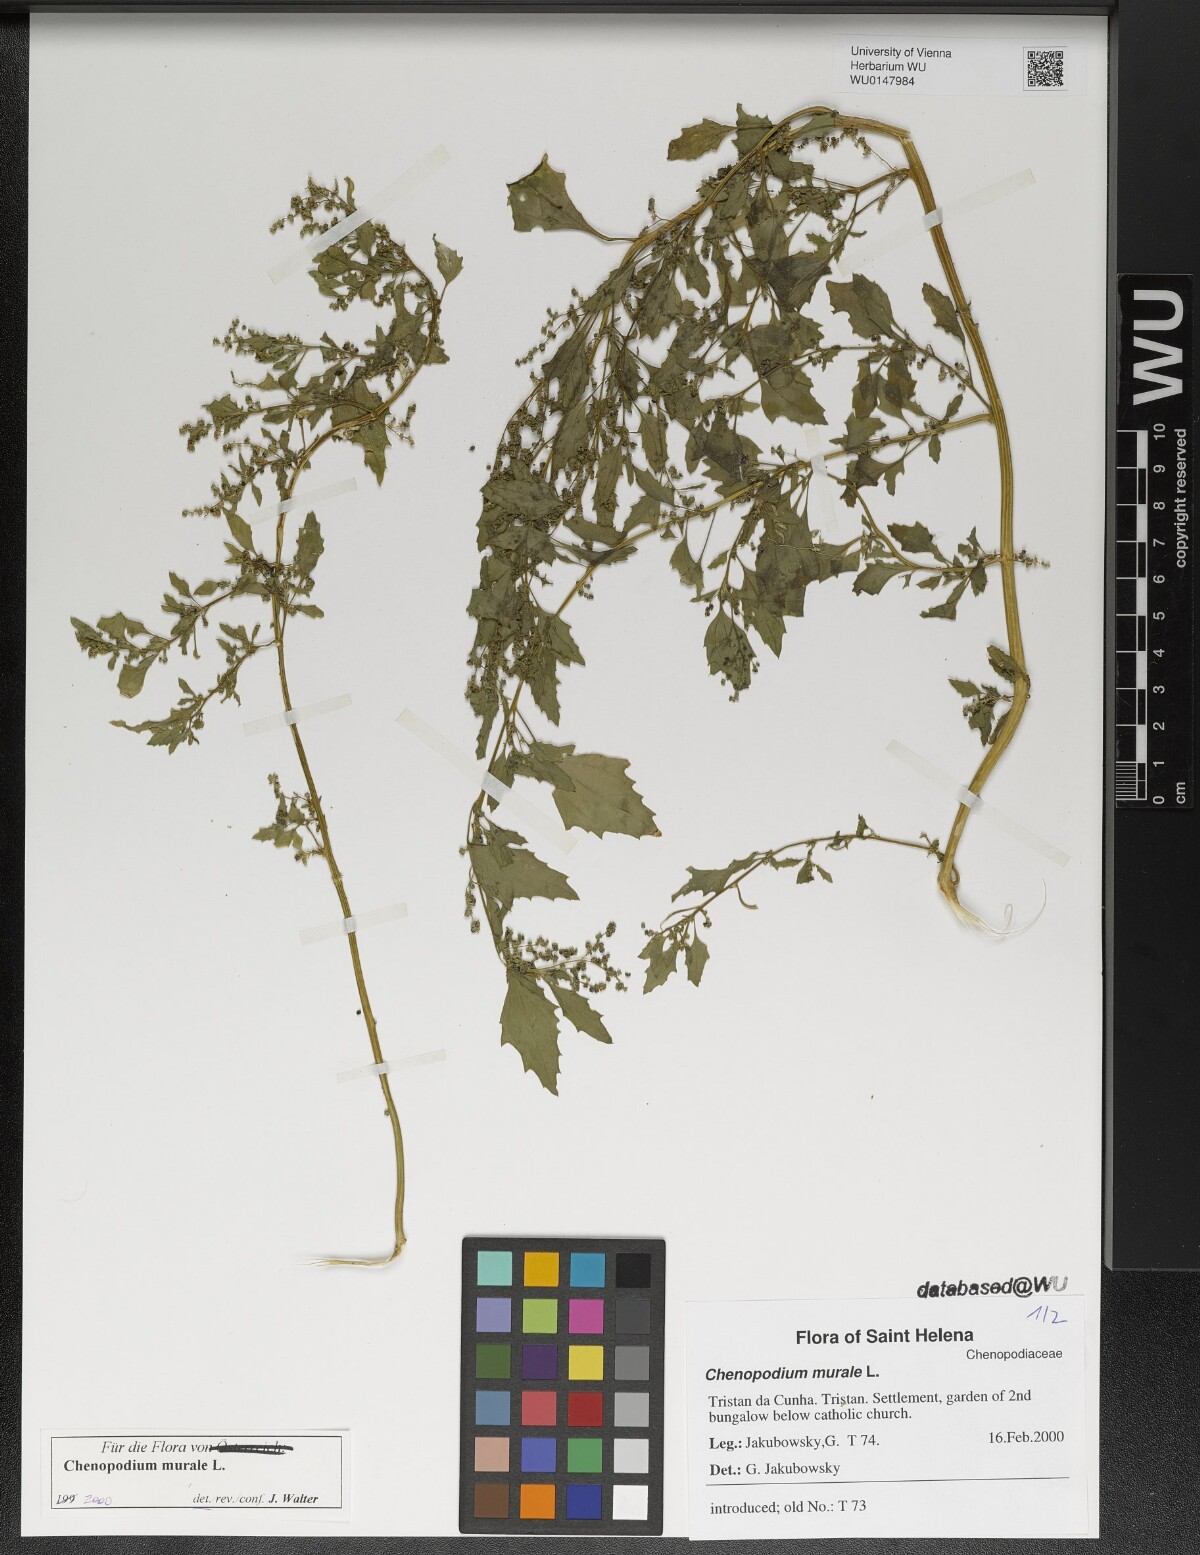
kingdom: Plantae
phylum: Tracheophyta
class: Magnoliopsida
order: Caryophyllales
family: Amaranthaceae
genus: Chenopodiastrum
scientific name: Chenopodiastrum murale
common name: Sowbane
